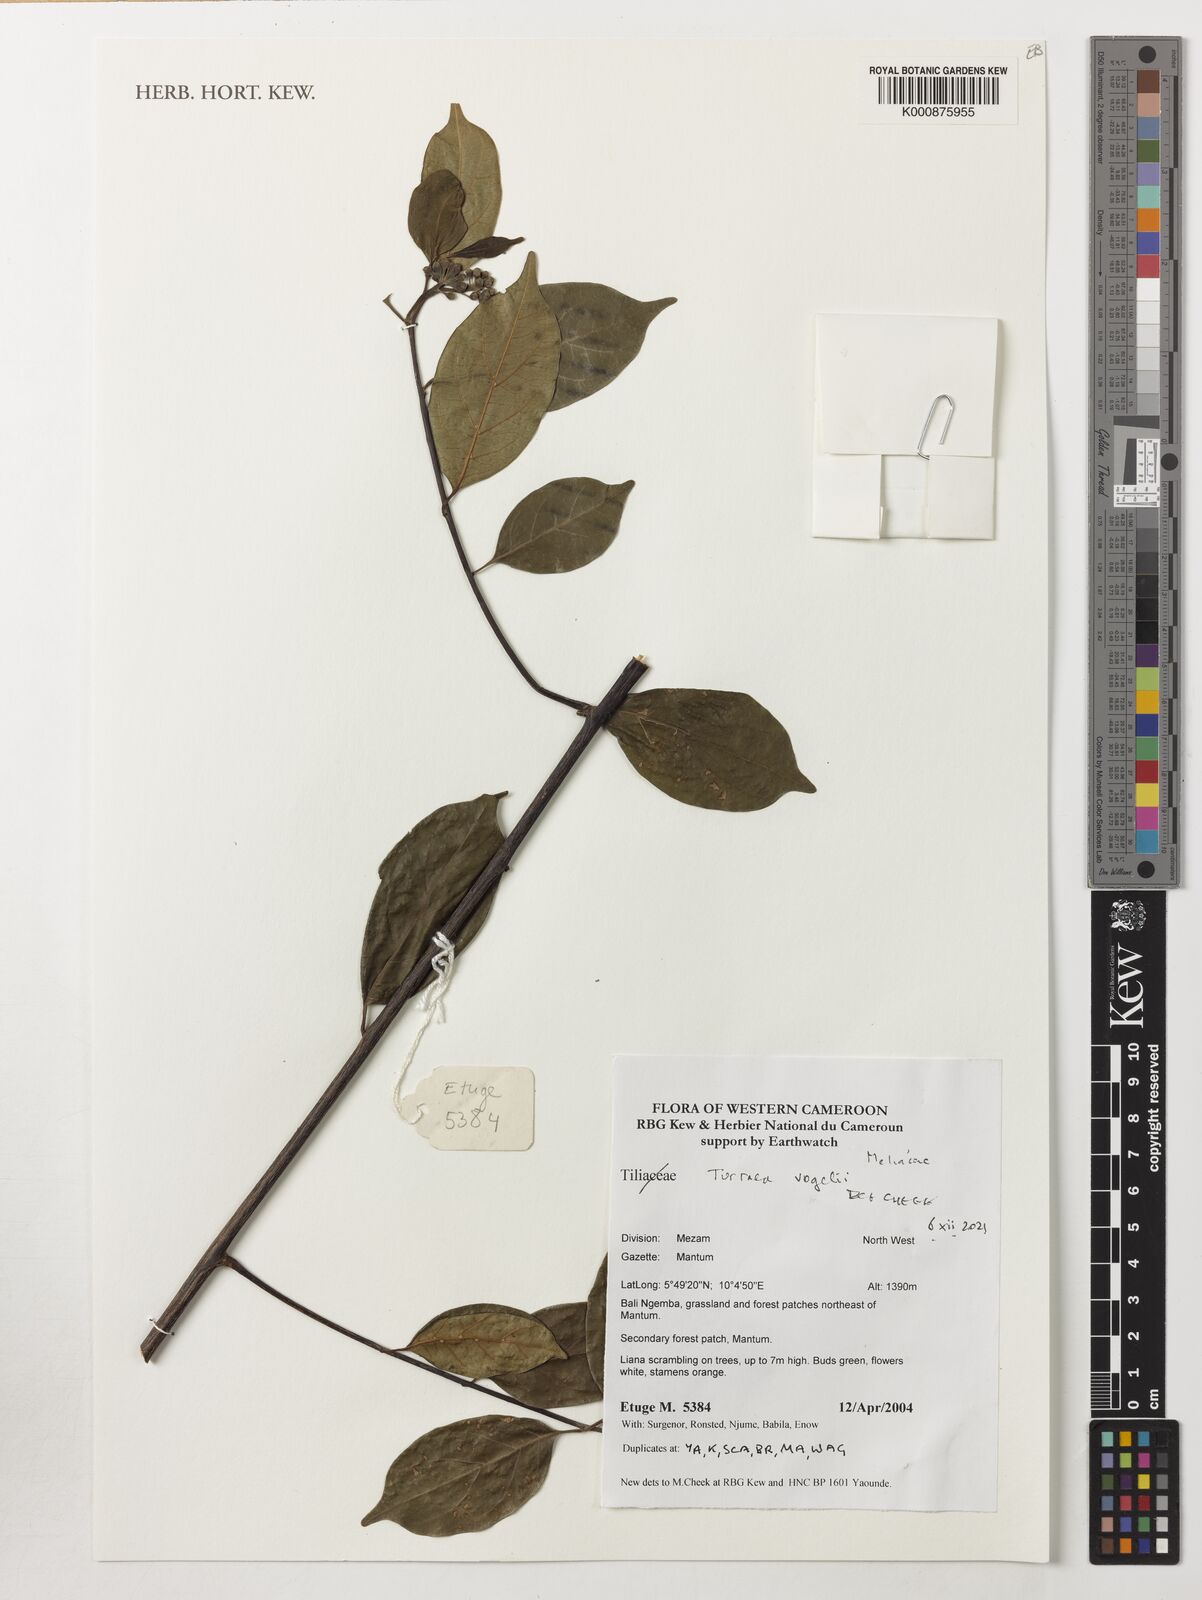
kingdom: Plantae
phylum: Tracheophyta
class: Magnoliopsida
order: Sapindales
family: Meliaceae
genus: Turraea
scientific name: Turraea vogelii
